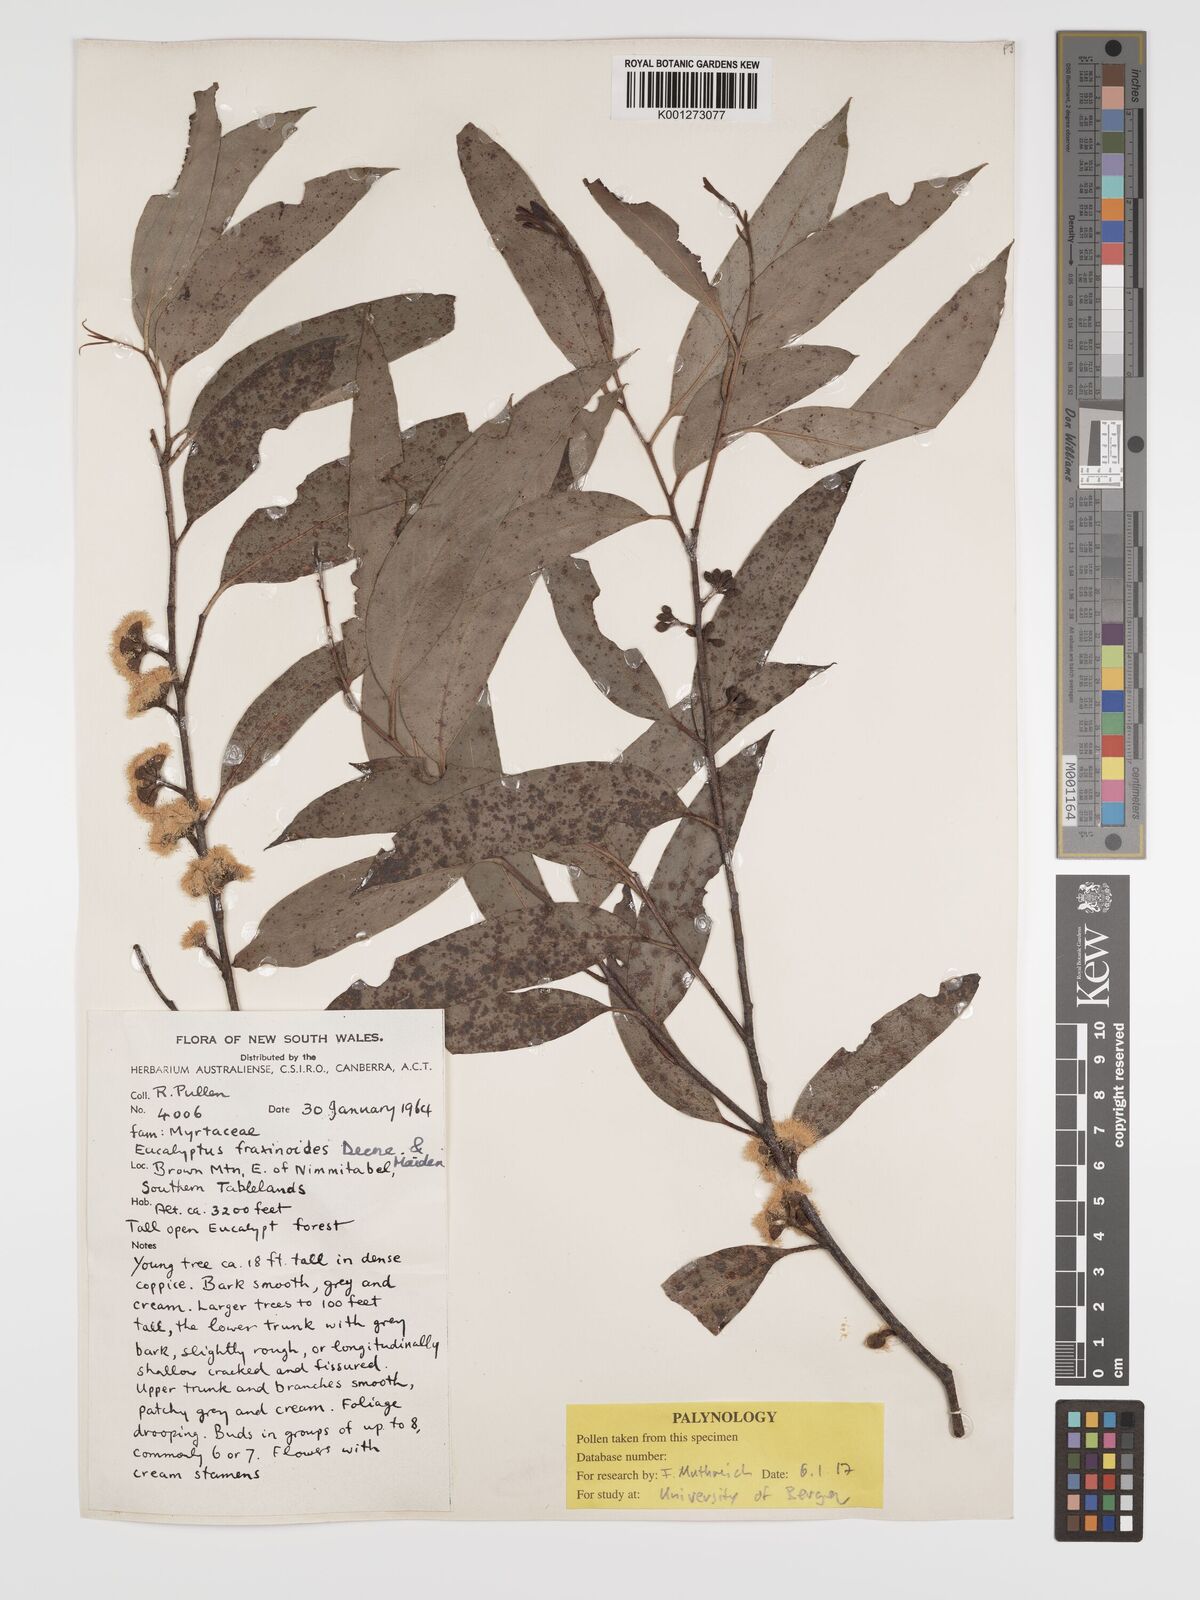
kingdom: Plantae
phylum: Tracheophyta
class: Magnoliopsida
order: Myrtales
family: Myrtaceae
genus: Eucalyptus
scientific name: Eucalyptus fraxinoides
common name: White-ash
